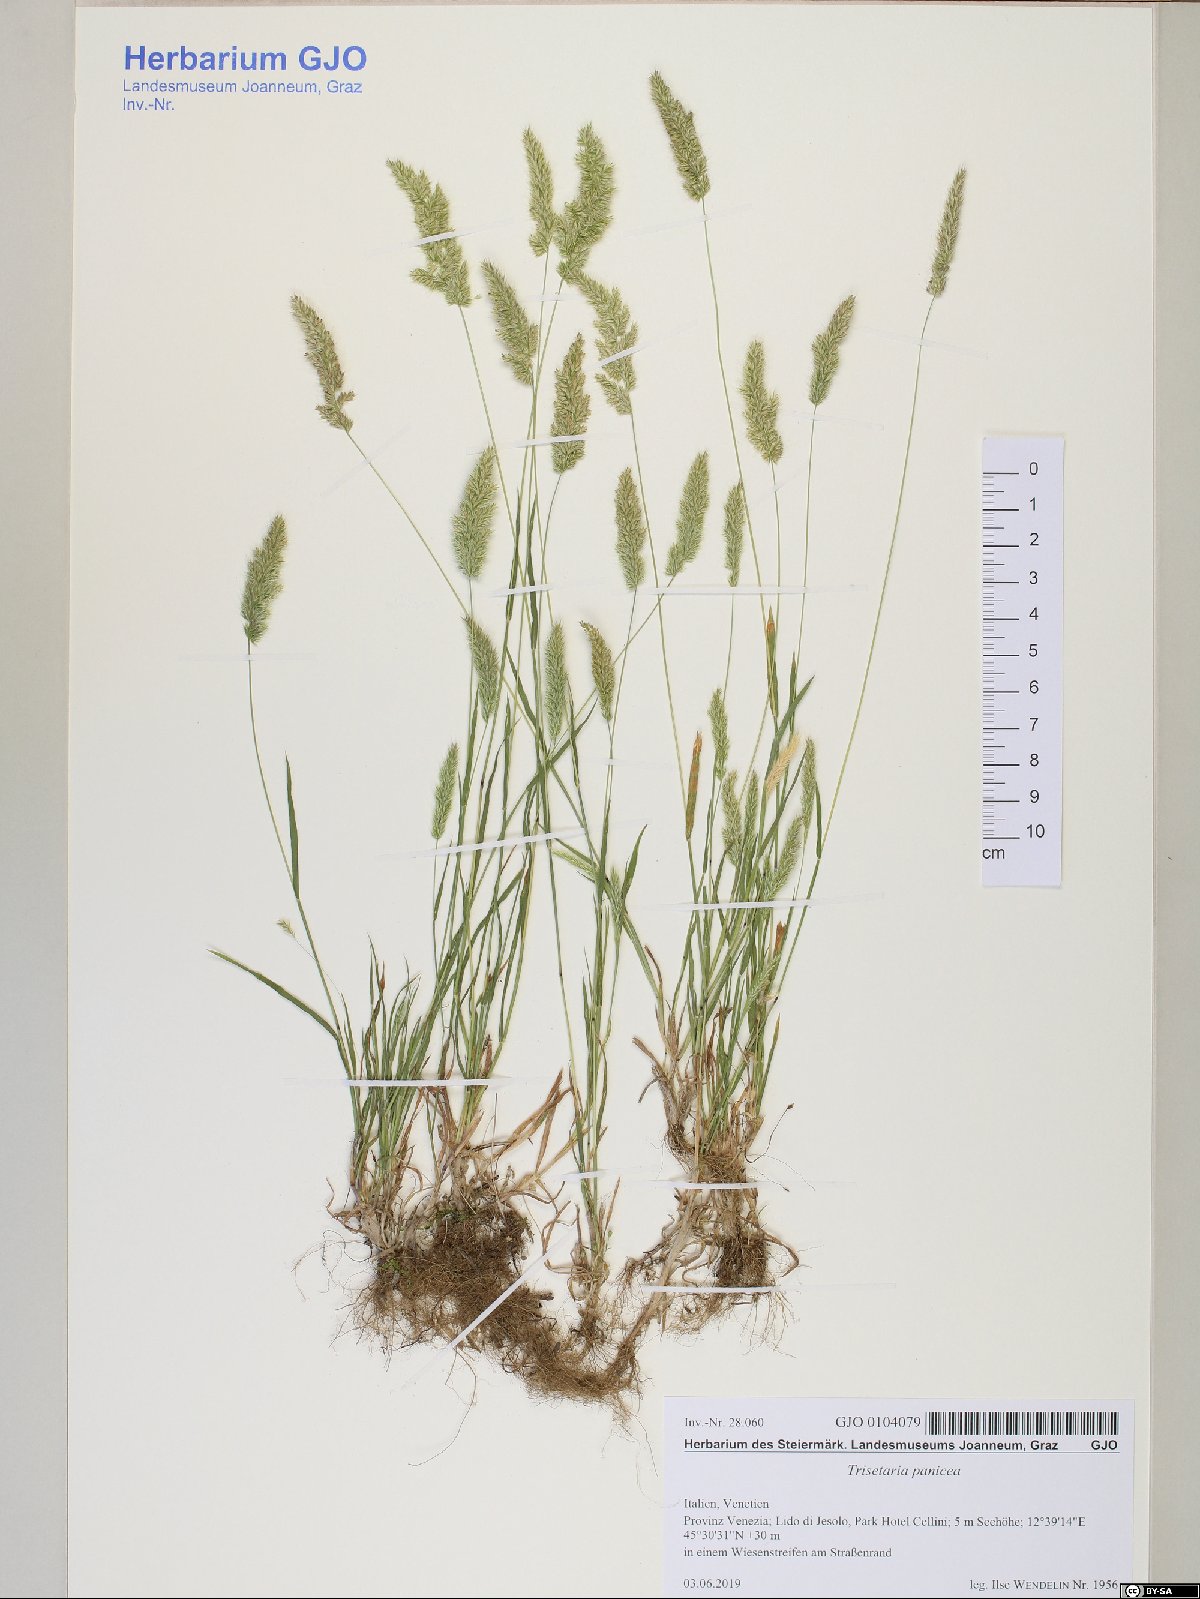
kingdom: Plantae
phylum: Tracheophyta
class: Liliopsida
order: Poales
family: Poaceae
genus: Trisetaria
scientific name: Trisetaria panicea
